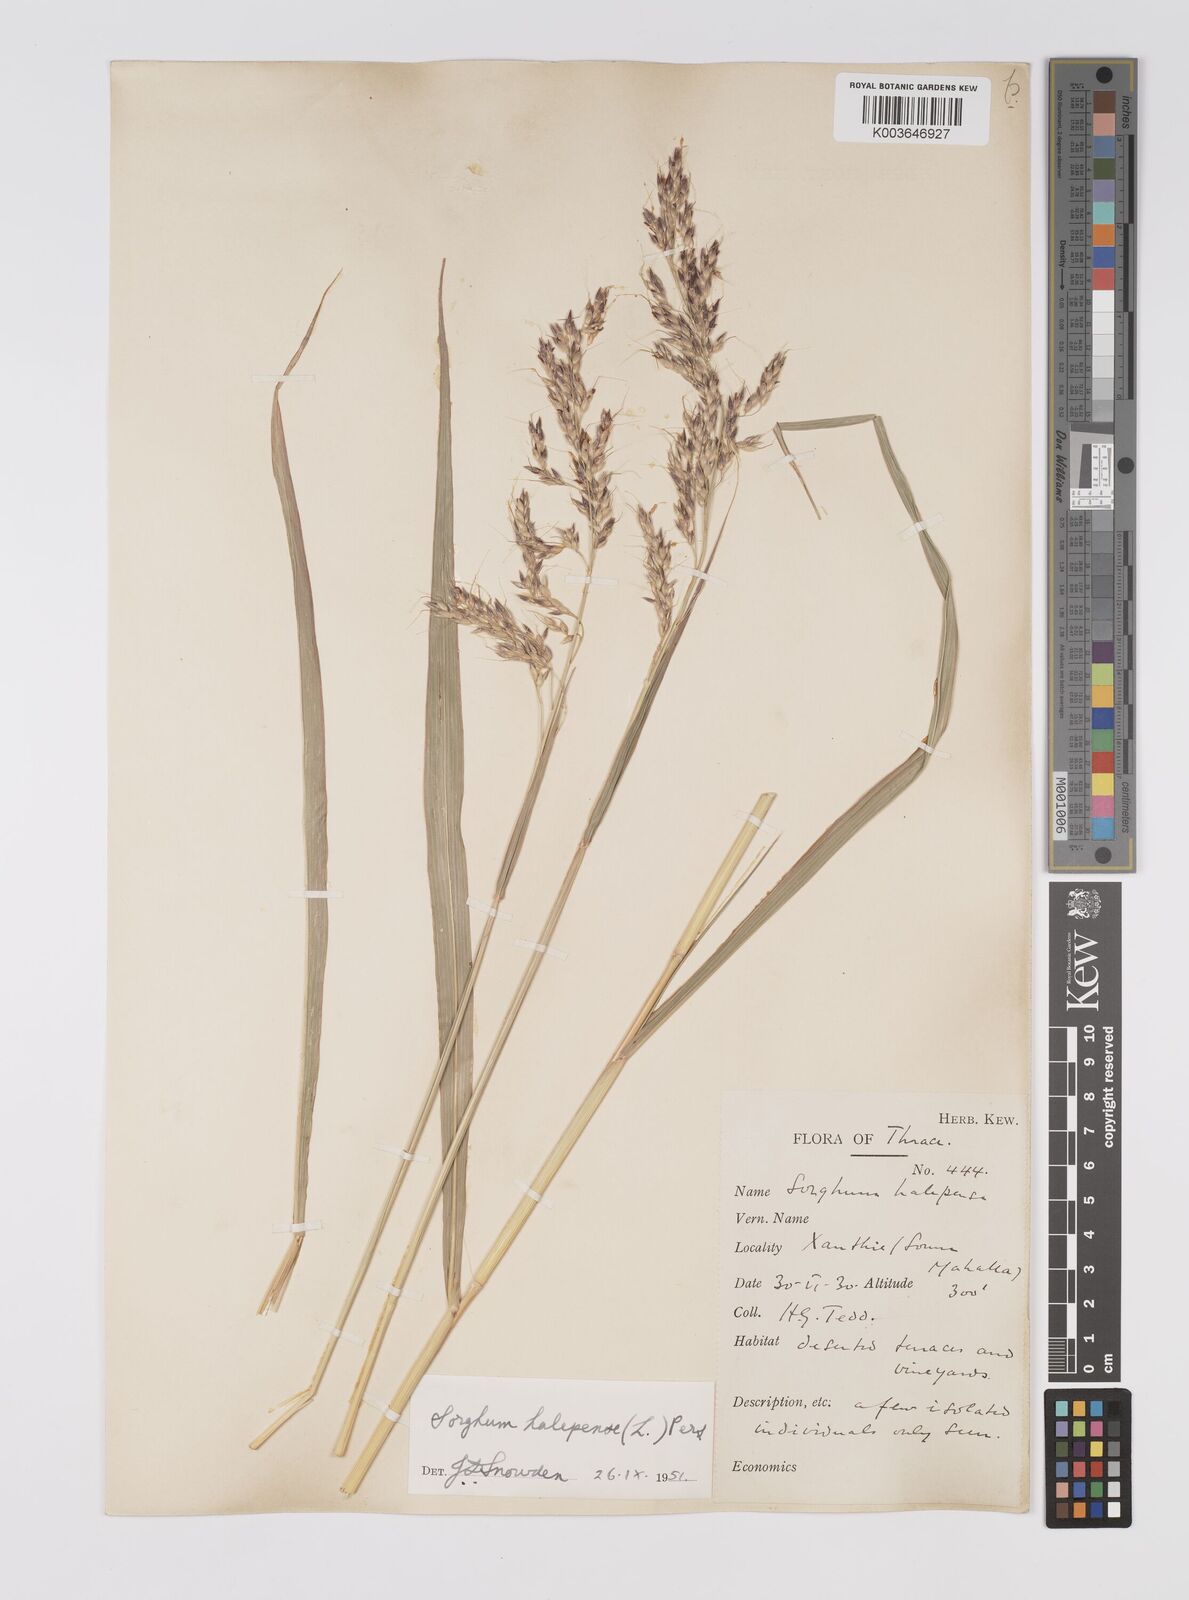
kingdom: Plantae
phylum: Tracheophyta
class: Liliopsida
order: Poales
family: Poaceae
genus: Sorghum
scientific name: Sorghum halepense
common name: Johnson-grass
